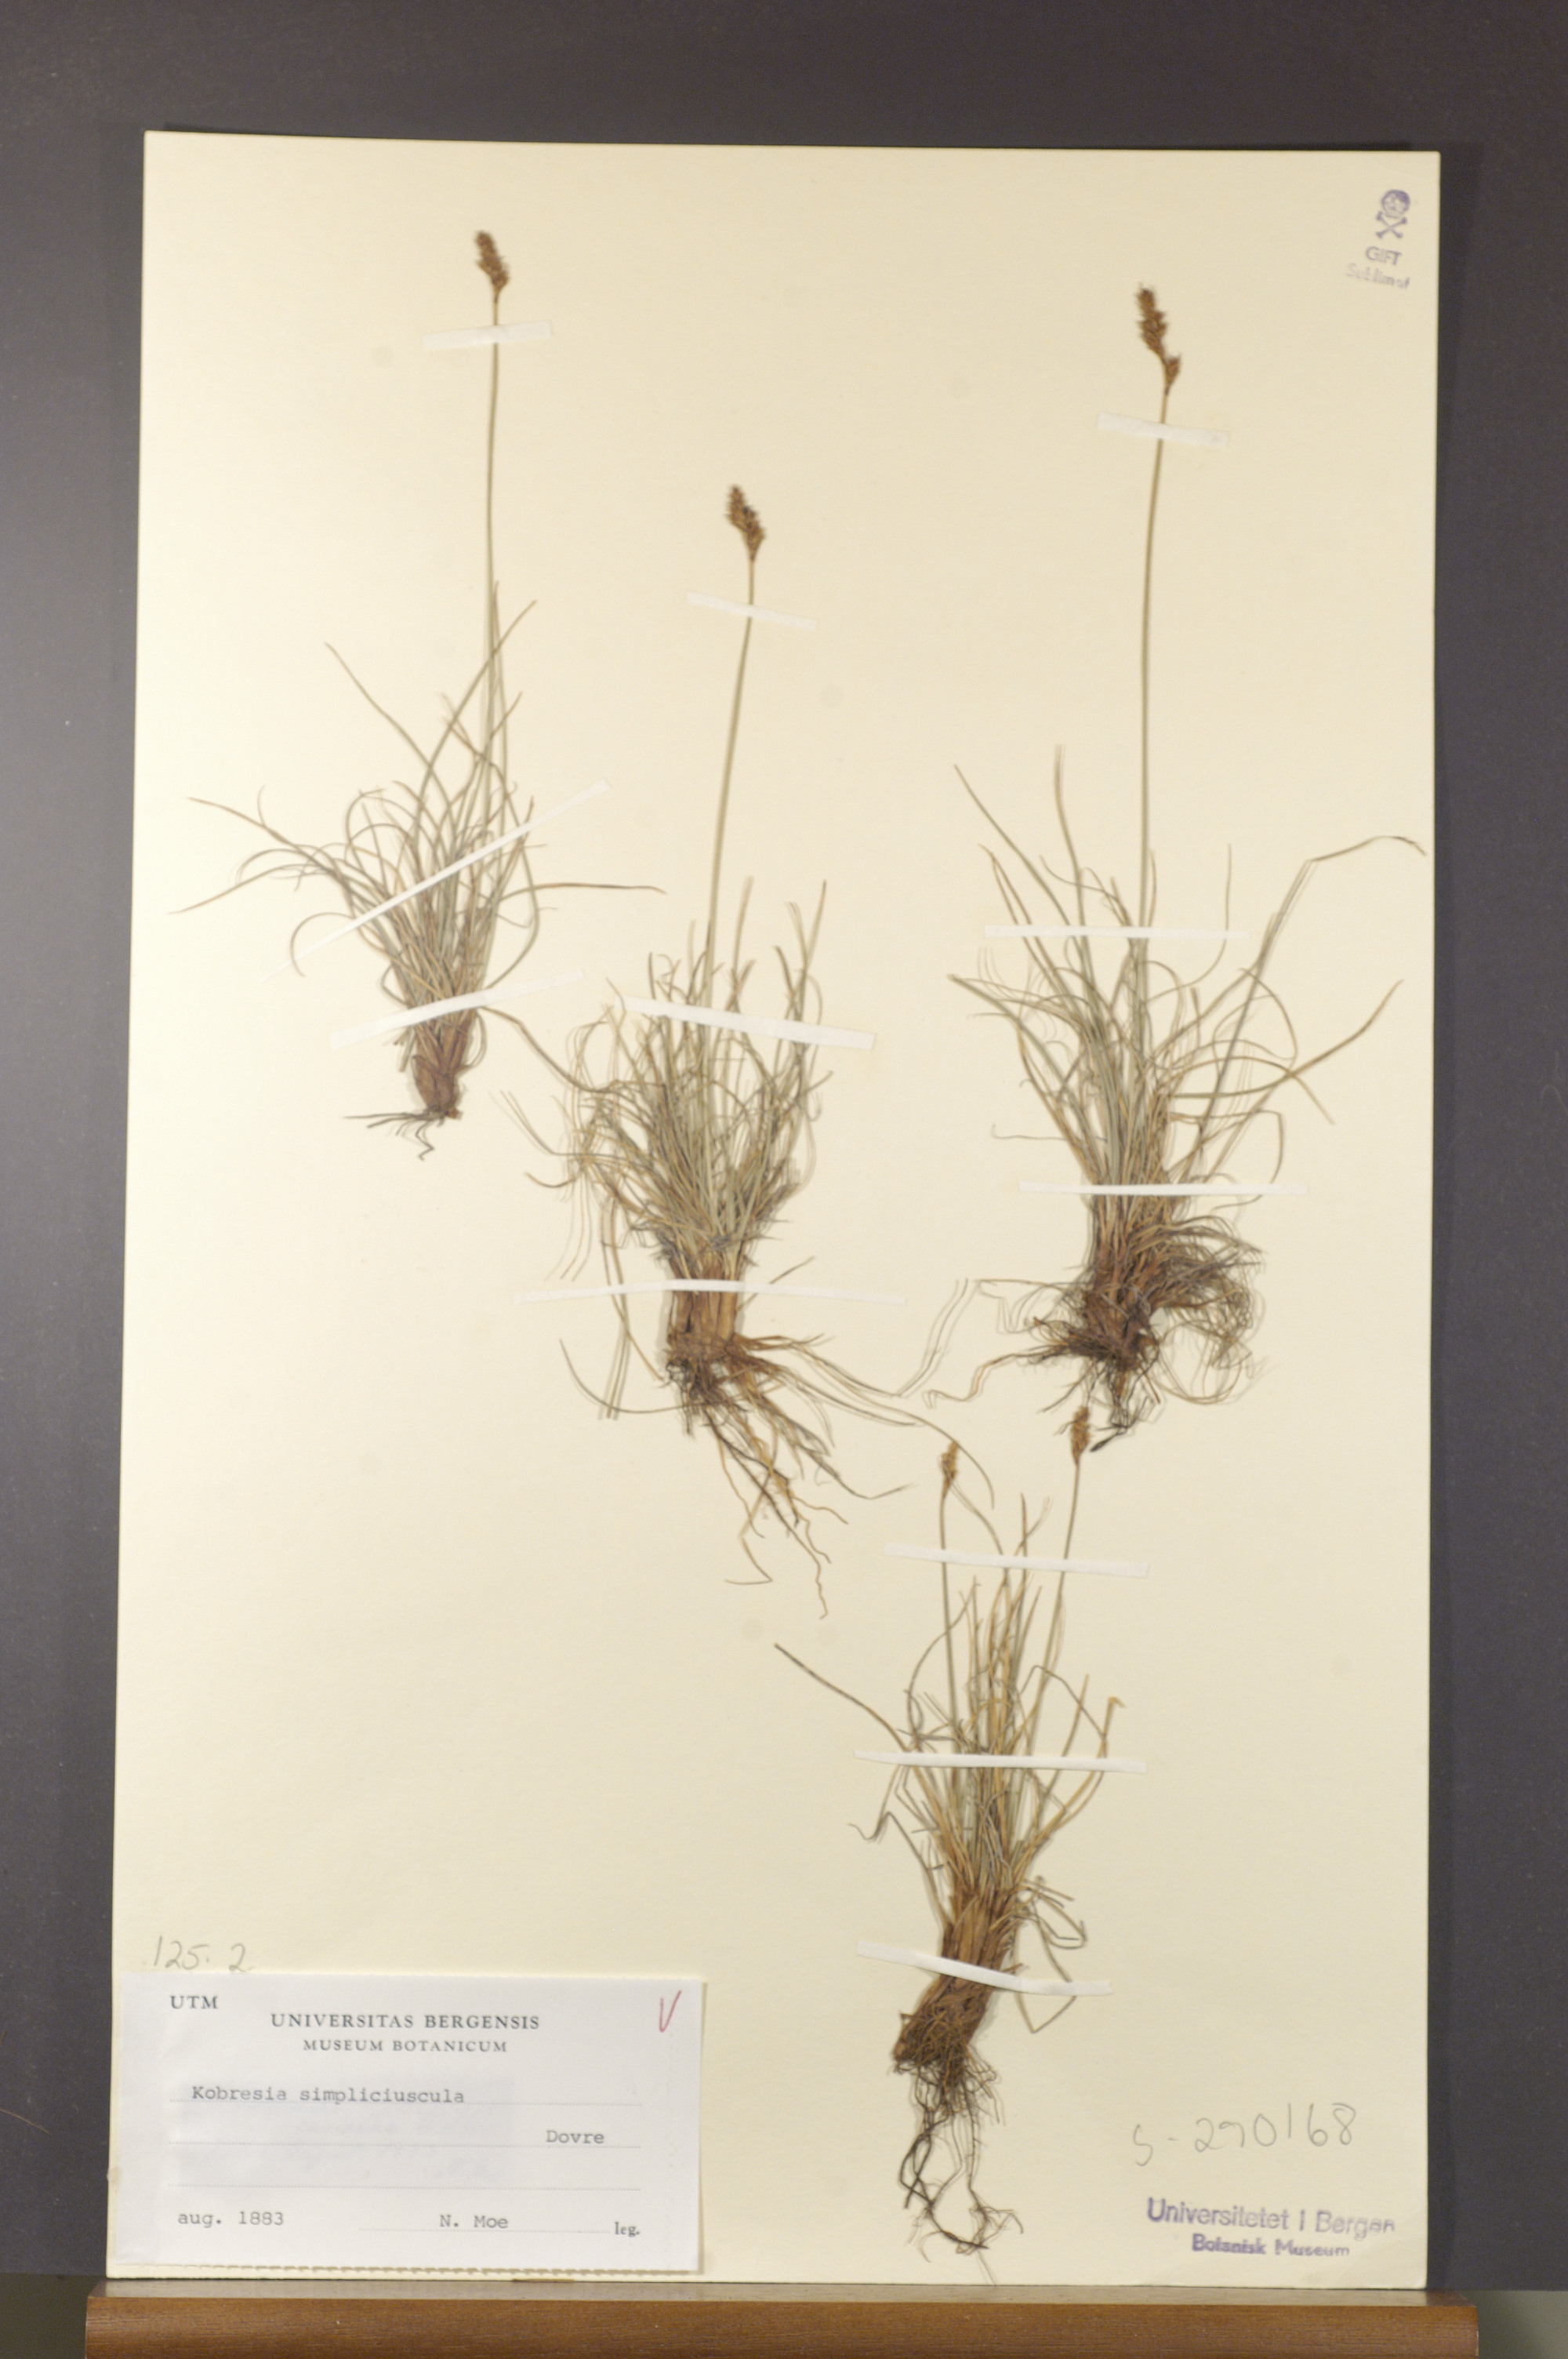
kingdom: Plantae
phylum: Tracheophyta
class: Liliopsida
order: Poales
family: Cyperaceae
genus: Carex
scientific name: Carex simpliciuscula
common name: Simple bog sedge
